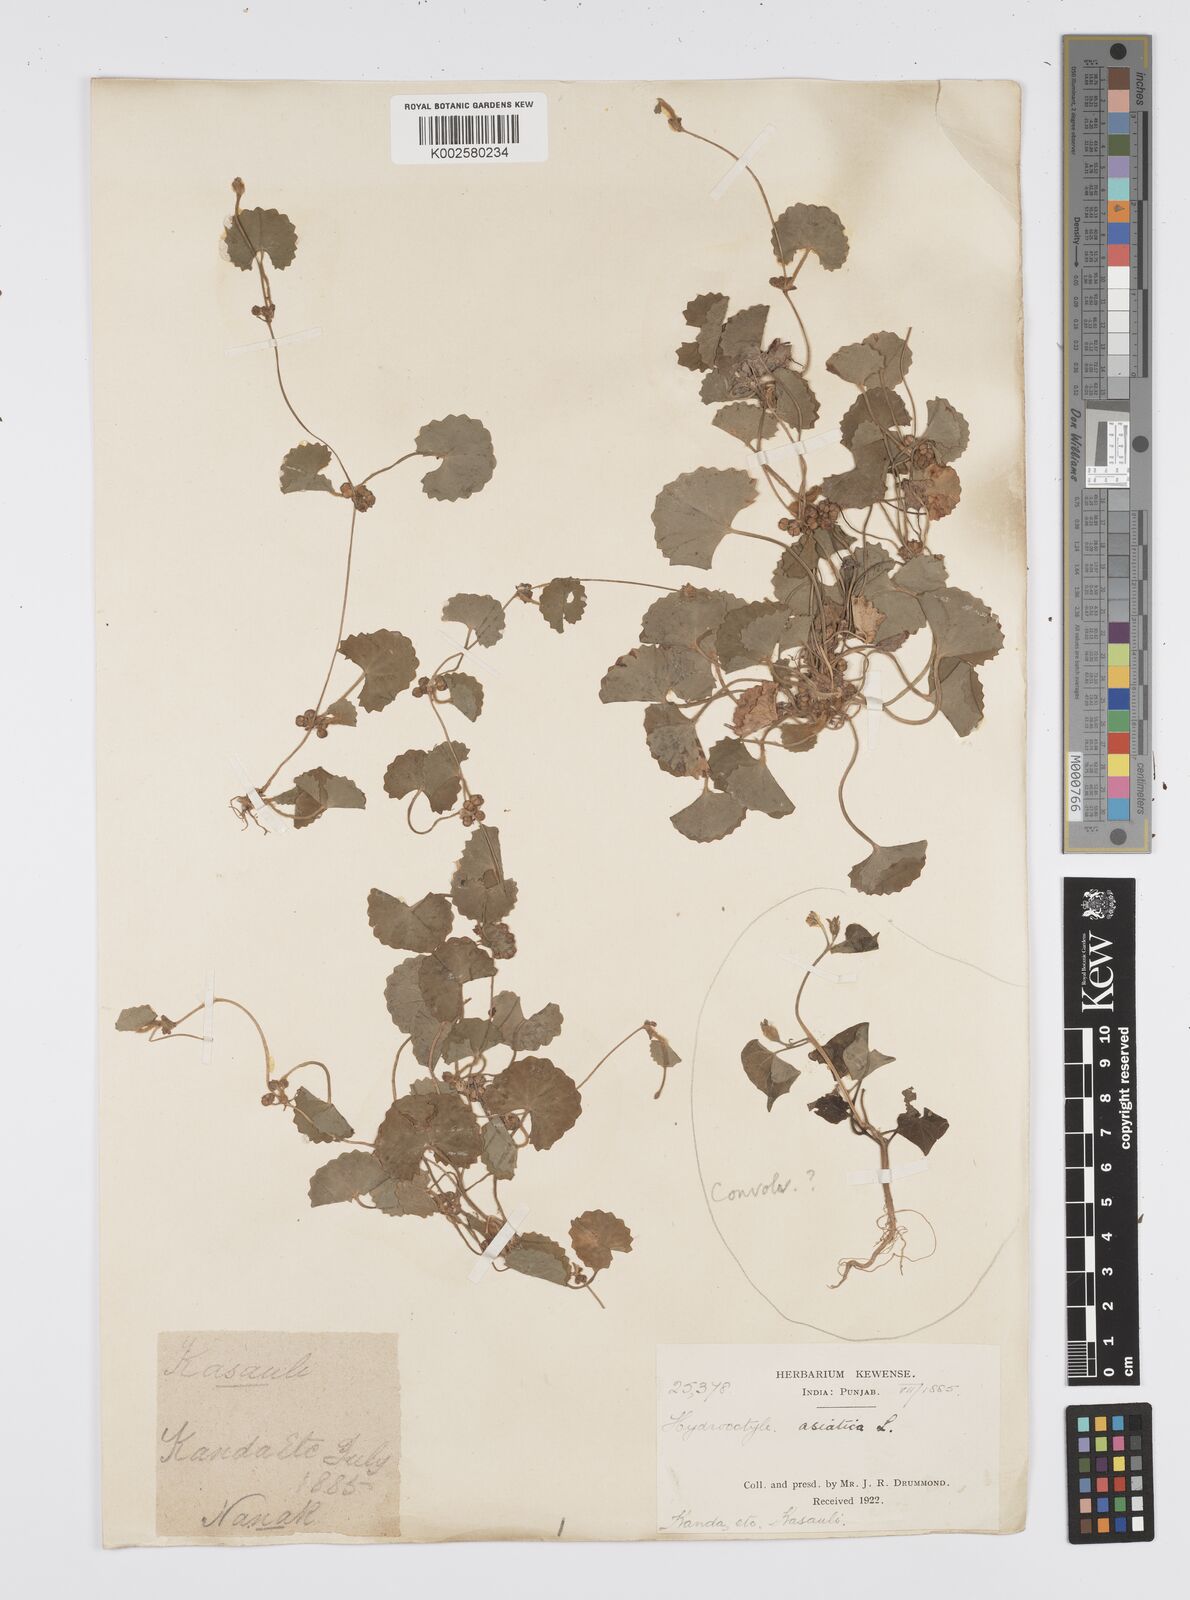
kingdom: Plantae
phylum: Tracheophyta
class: Magnoliopsida
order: Apiales
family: Apiaceae
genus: Centella
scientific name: Centella asiatica
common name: Spadeleaf
